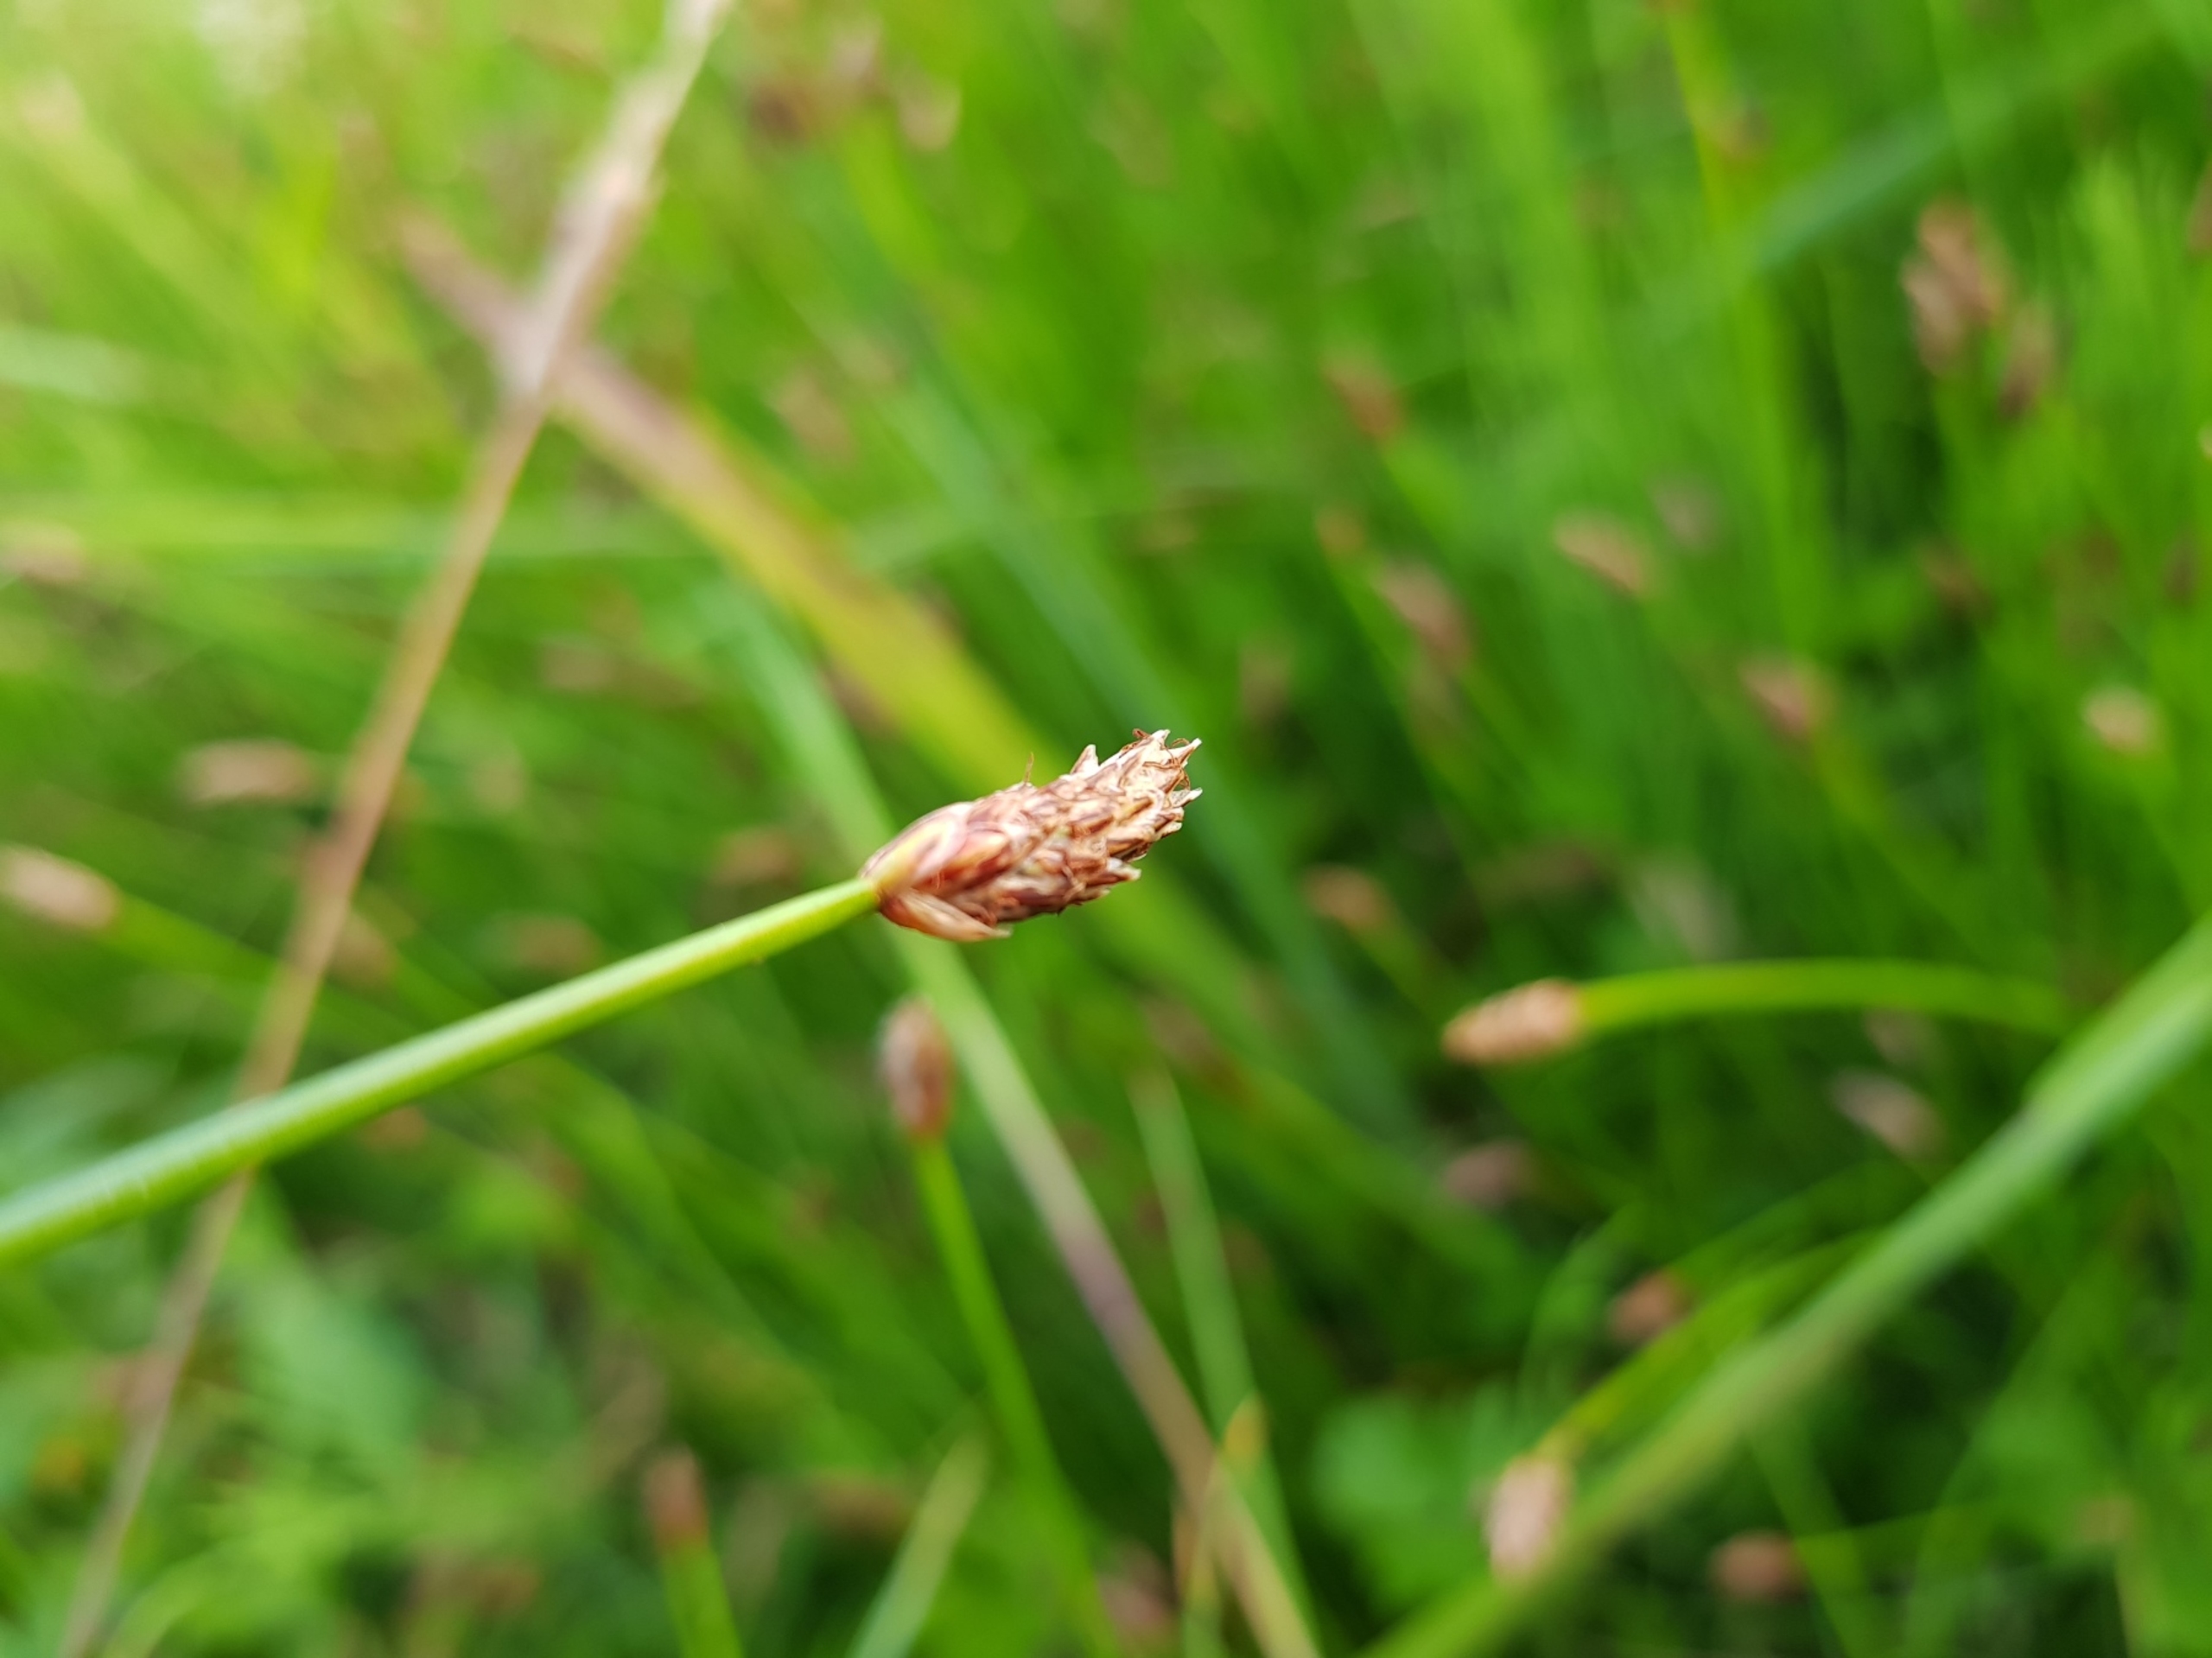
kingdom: Plantae
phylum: Tracheophyta
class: Liliopsida
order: Poales
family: Cyperaceae
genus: Eleocharis
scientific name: Eleocharis palustris
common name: Almindelig sumpstrå
